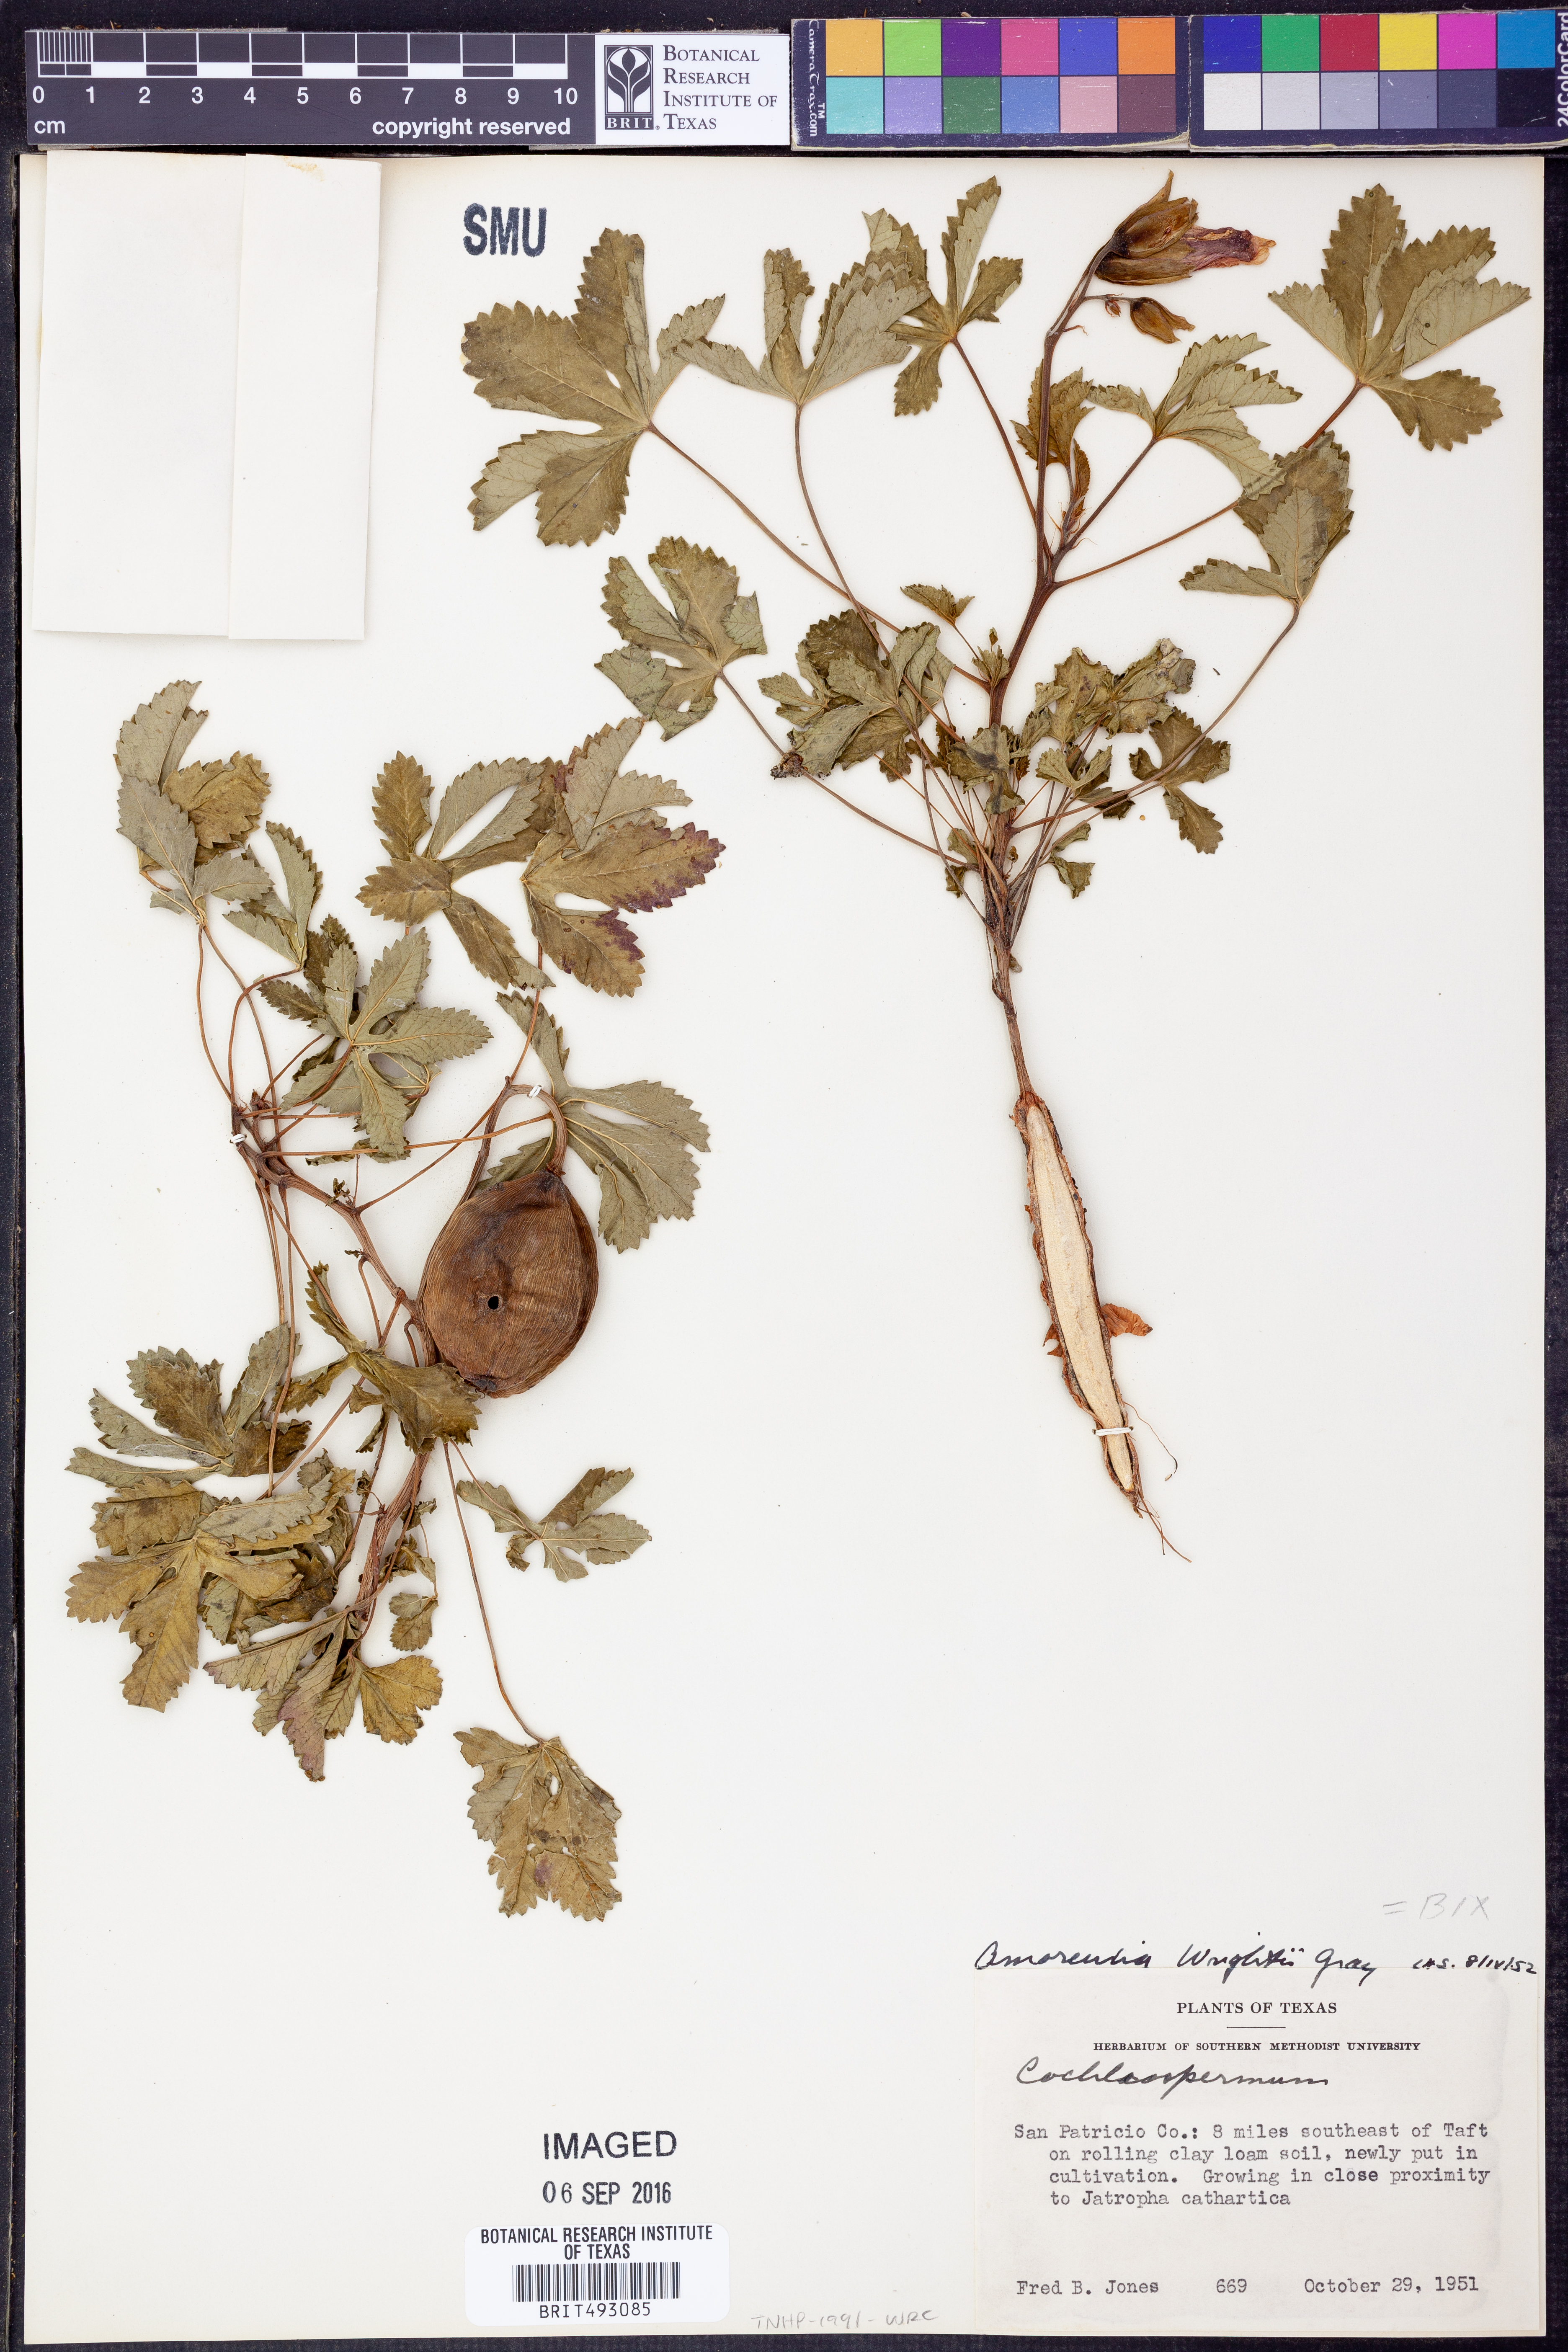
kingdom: Plantae
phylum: Tracheophyta
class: Magnoliopsida
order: Malvales
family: Cochlospermaceae
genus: Cochlospermum
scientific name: Cochlospermum wrightii
